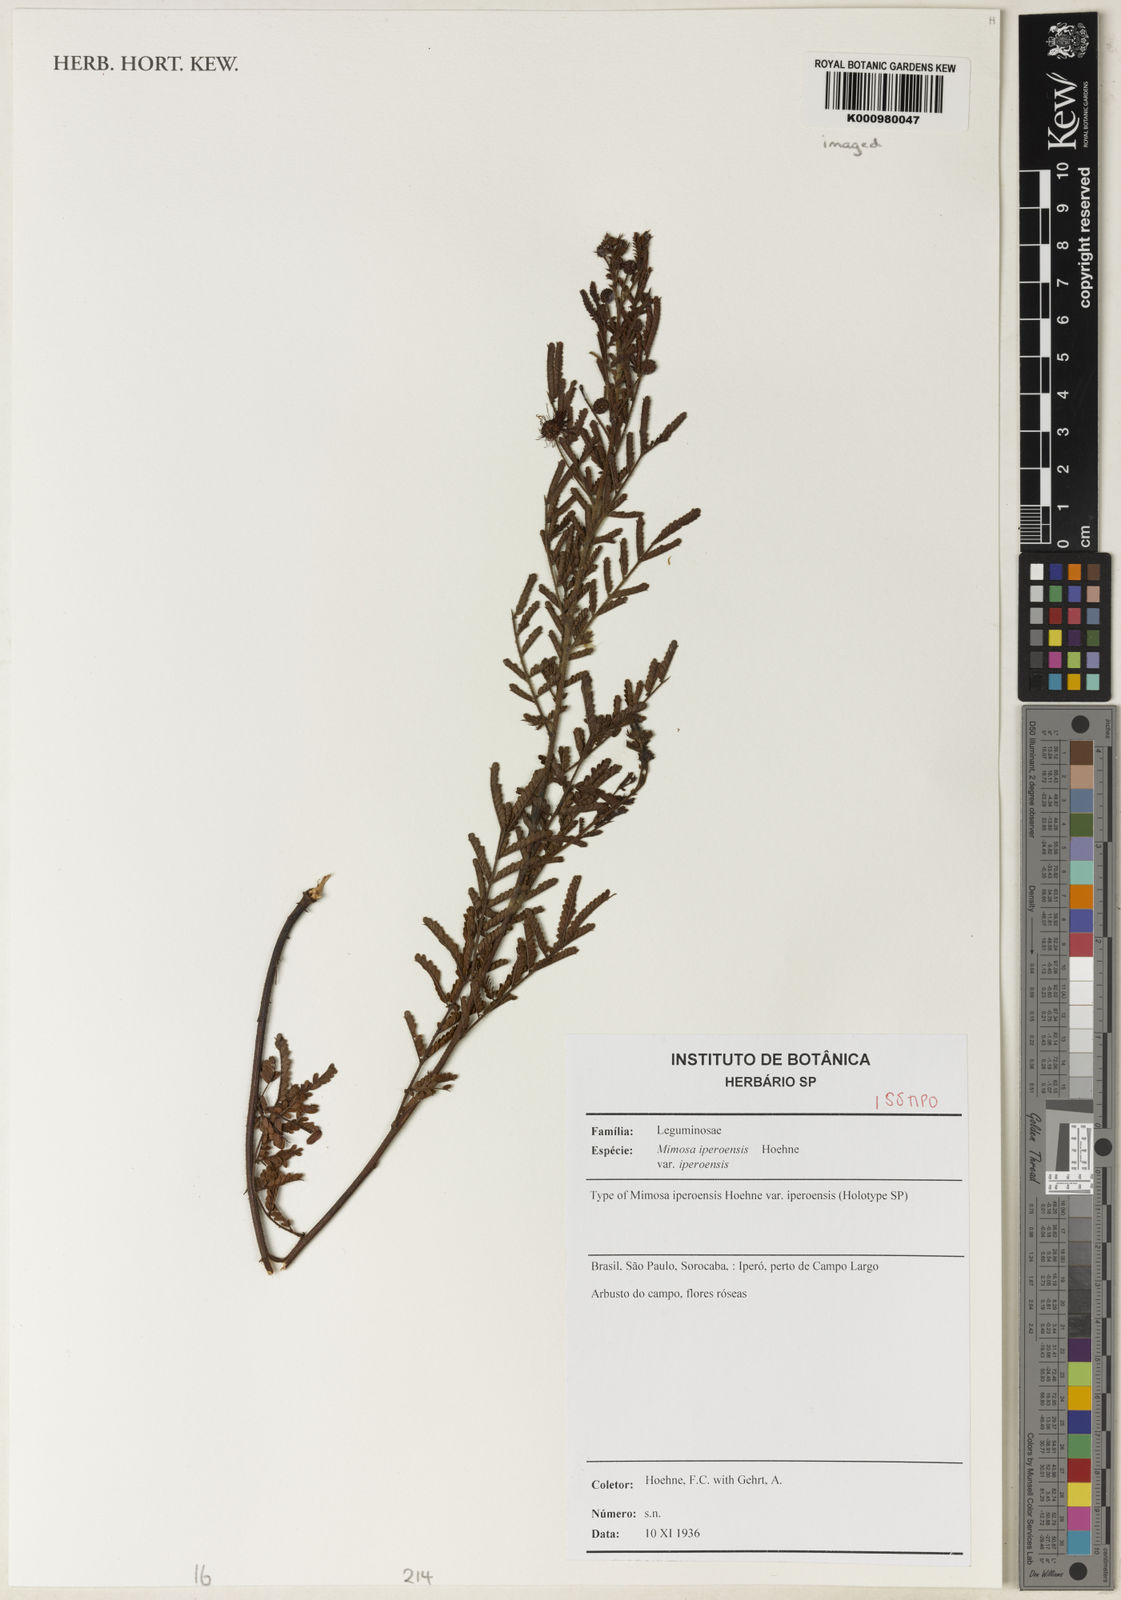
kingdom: Plantae
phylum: Tracheophyta
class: Magnoliopsida
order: Fabales
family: Fabaceae
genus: Mimosa
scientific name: Mimosa iperoensis
